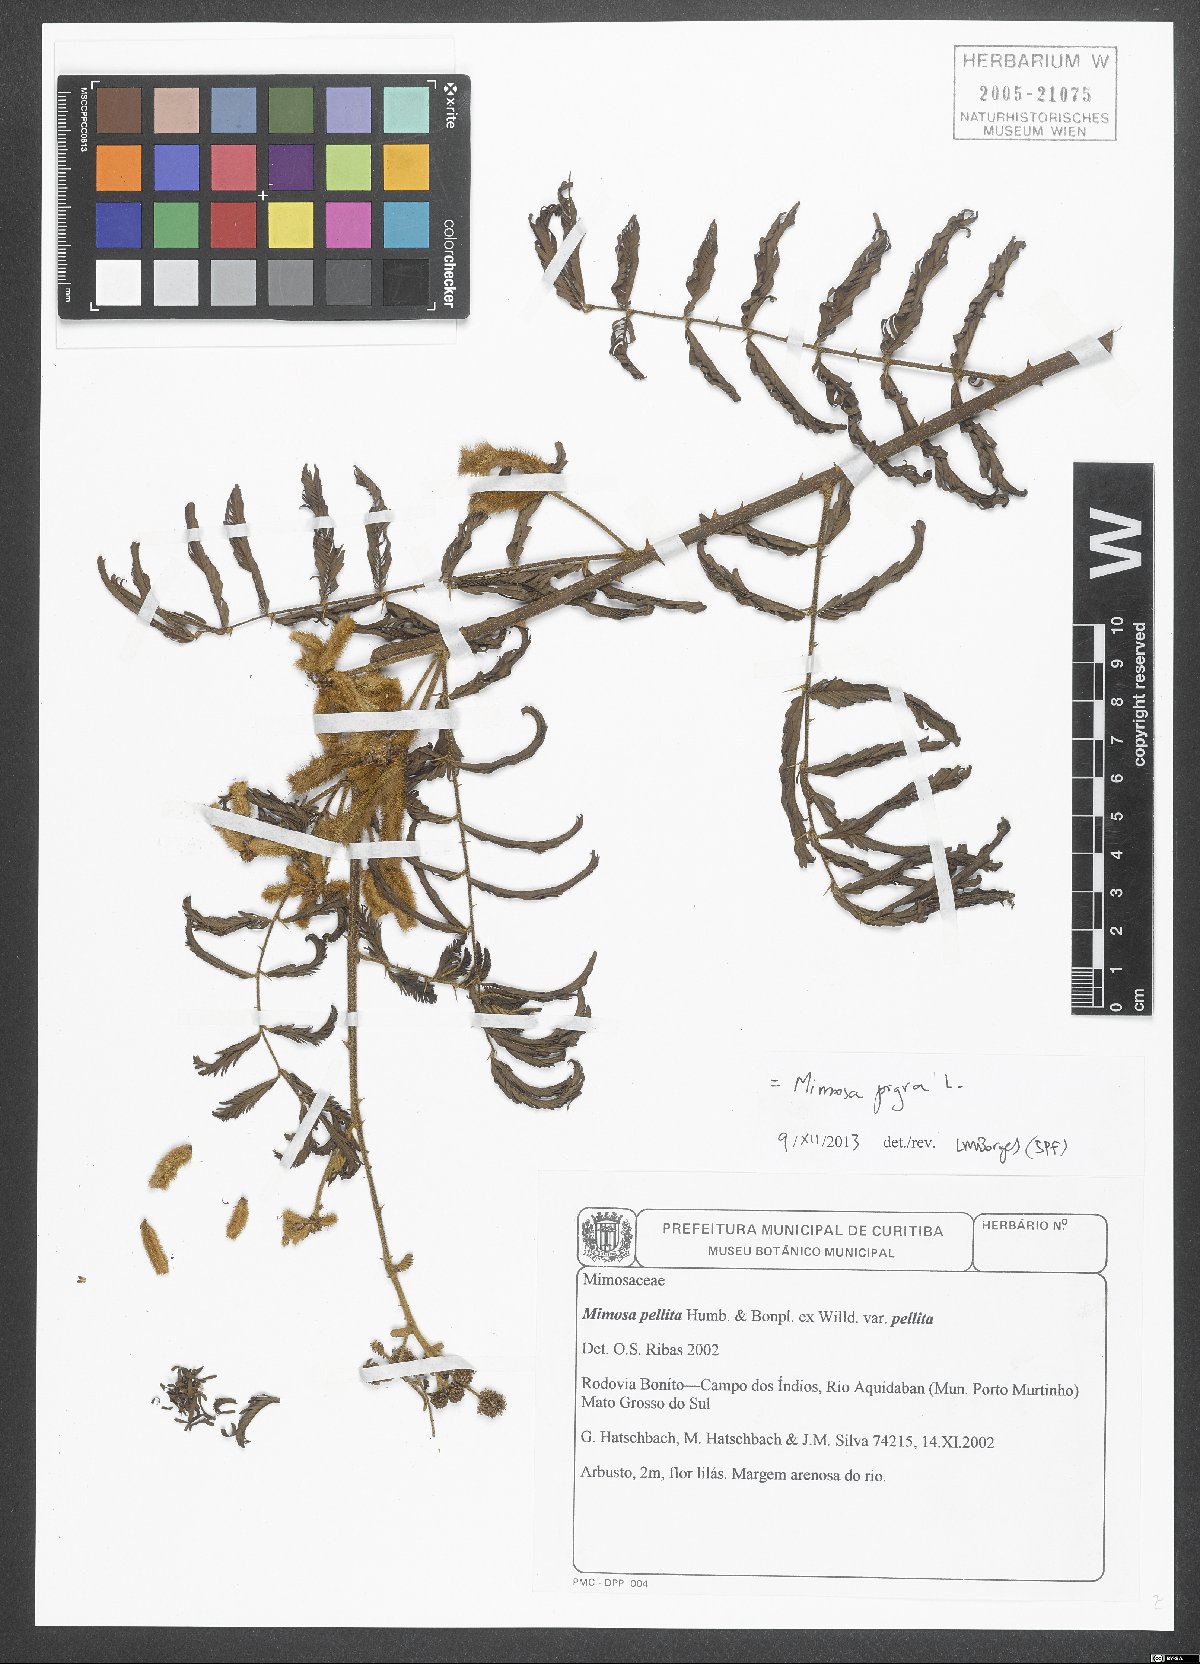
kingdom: Plantae
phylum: Tracheophyta
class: Magnoliopsida
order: Fabales
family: Fabaceae
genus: Mimosa
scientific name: Mimosa pigra
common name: Black mimosa
